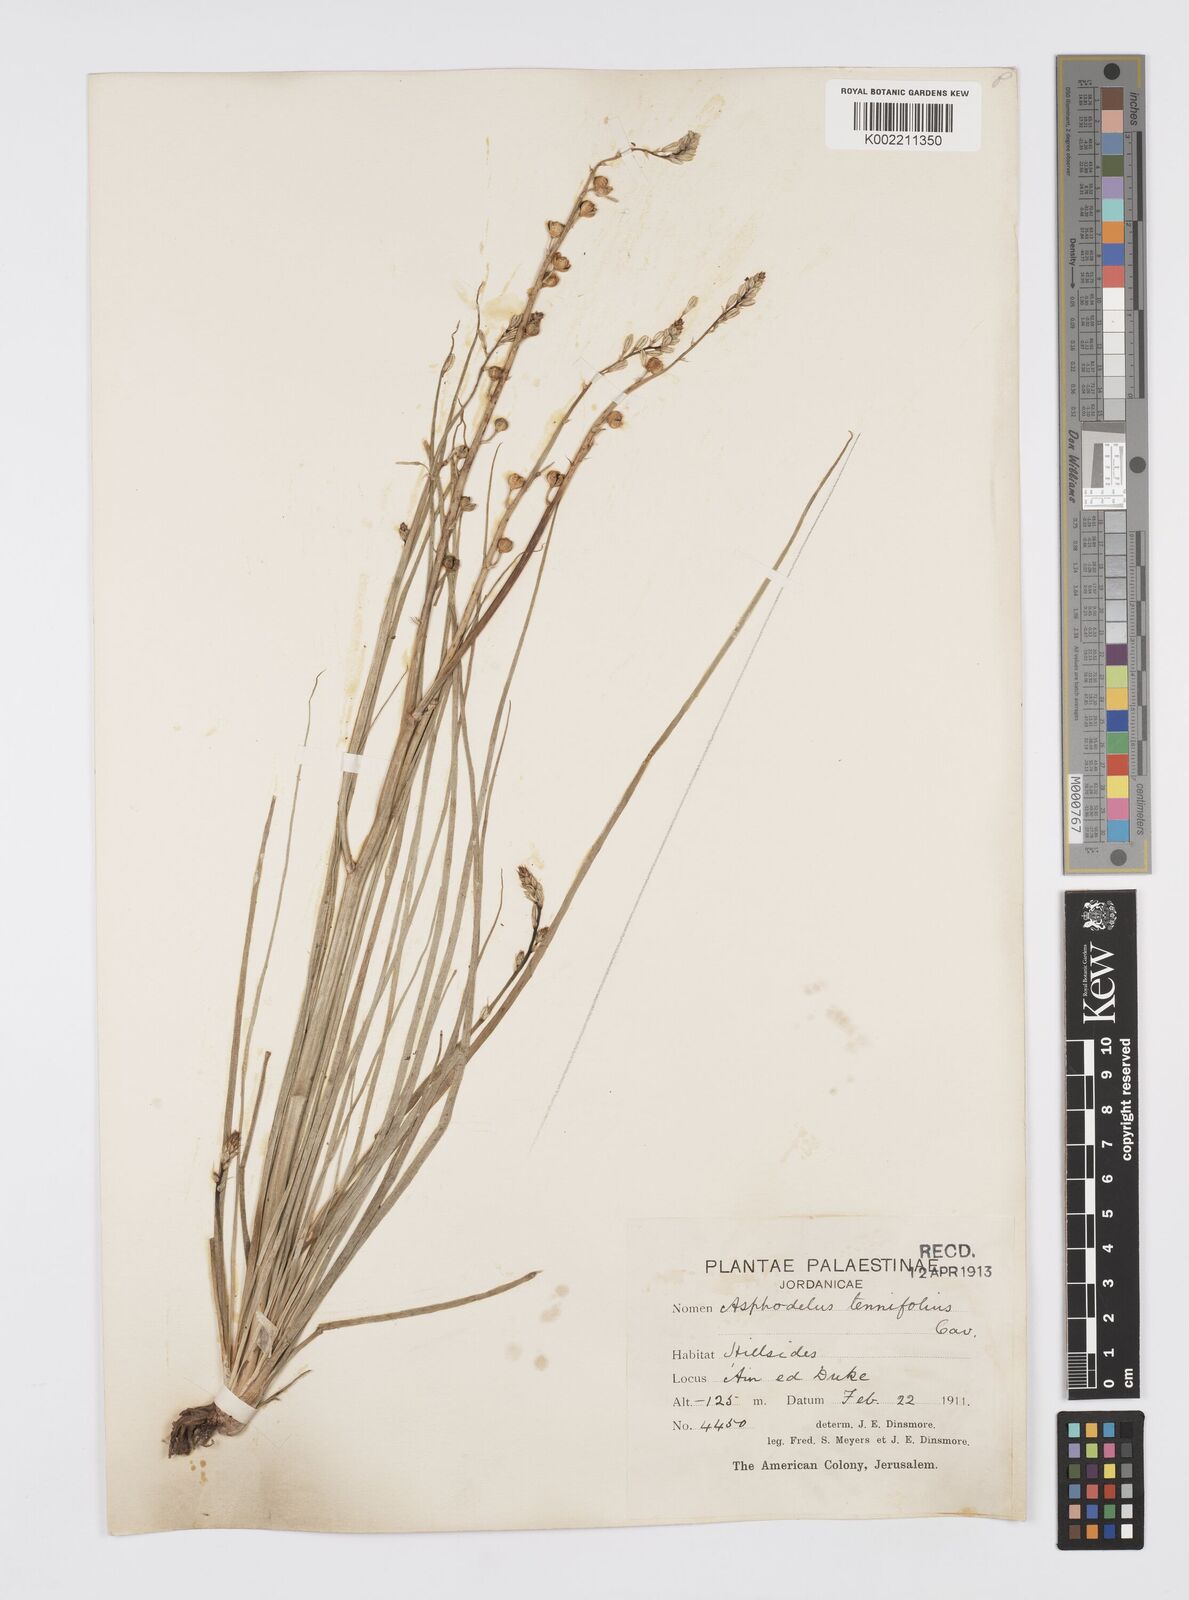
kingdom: Plantae
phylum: Tracheophyta
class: Liliopsida
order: Asparagales
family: Asphodelaceae
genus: Asphodelus
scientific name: Asphodelus tenuifolius
